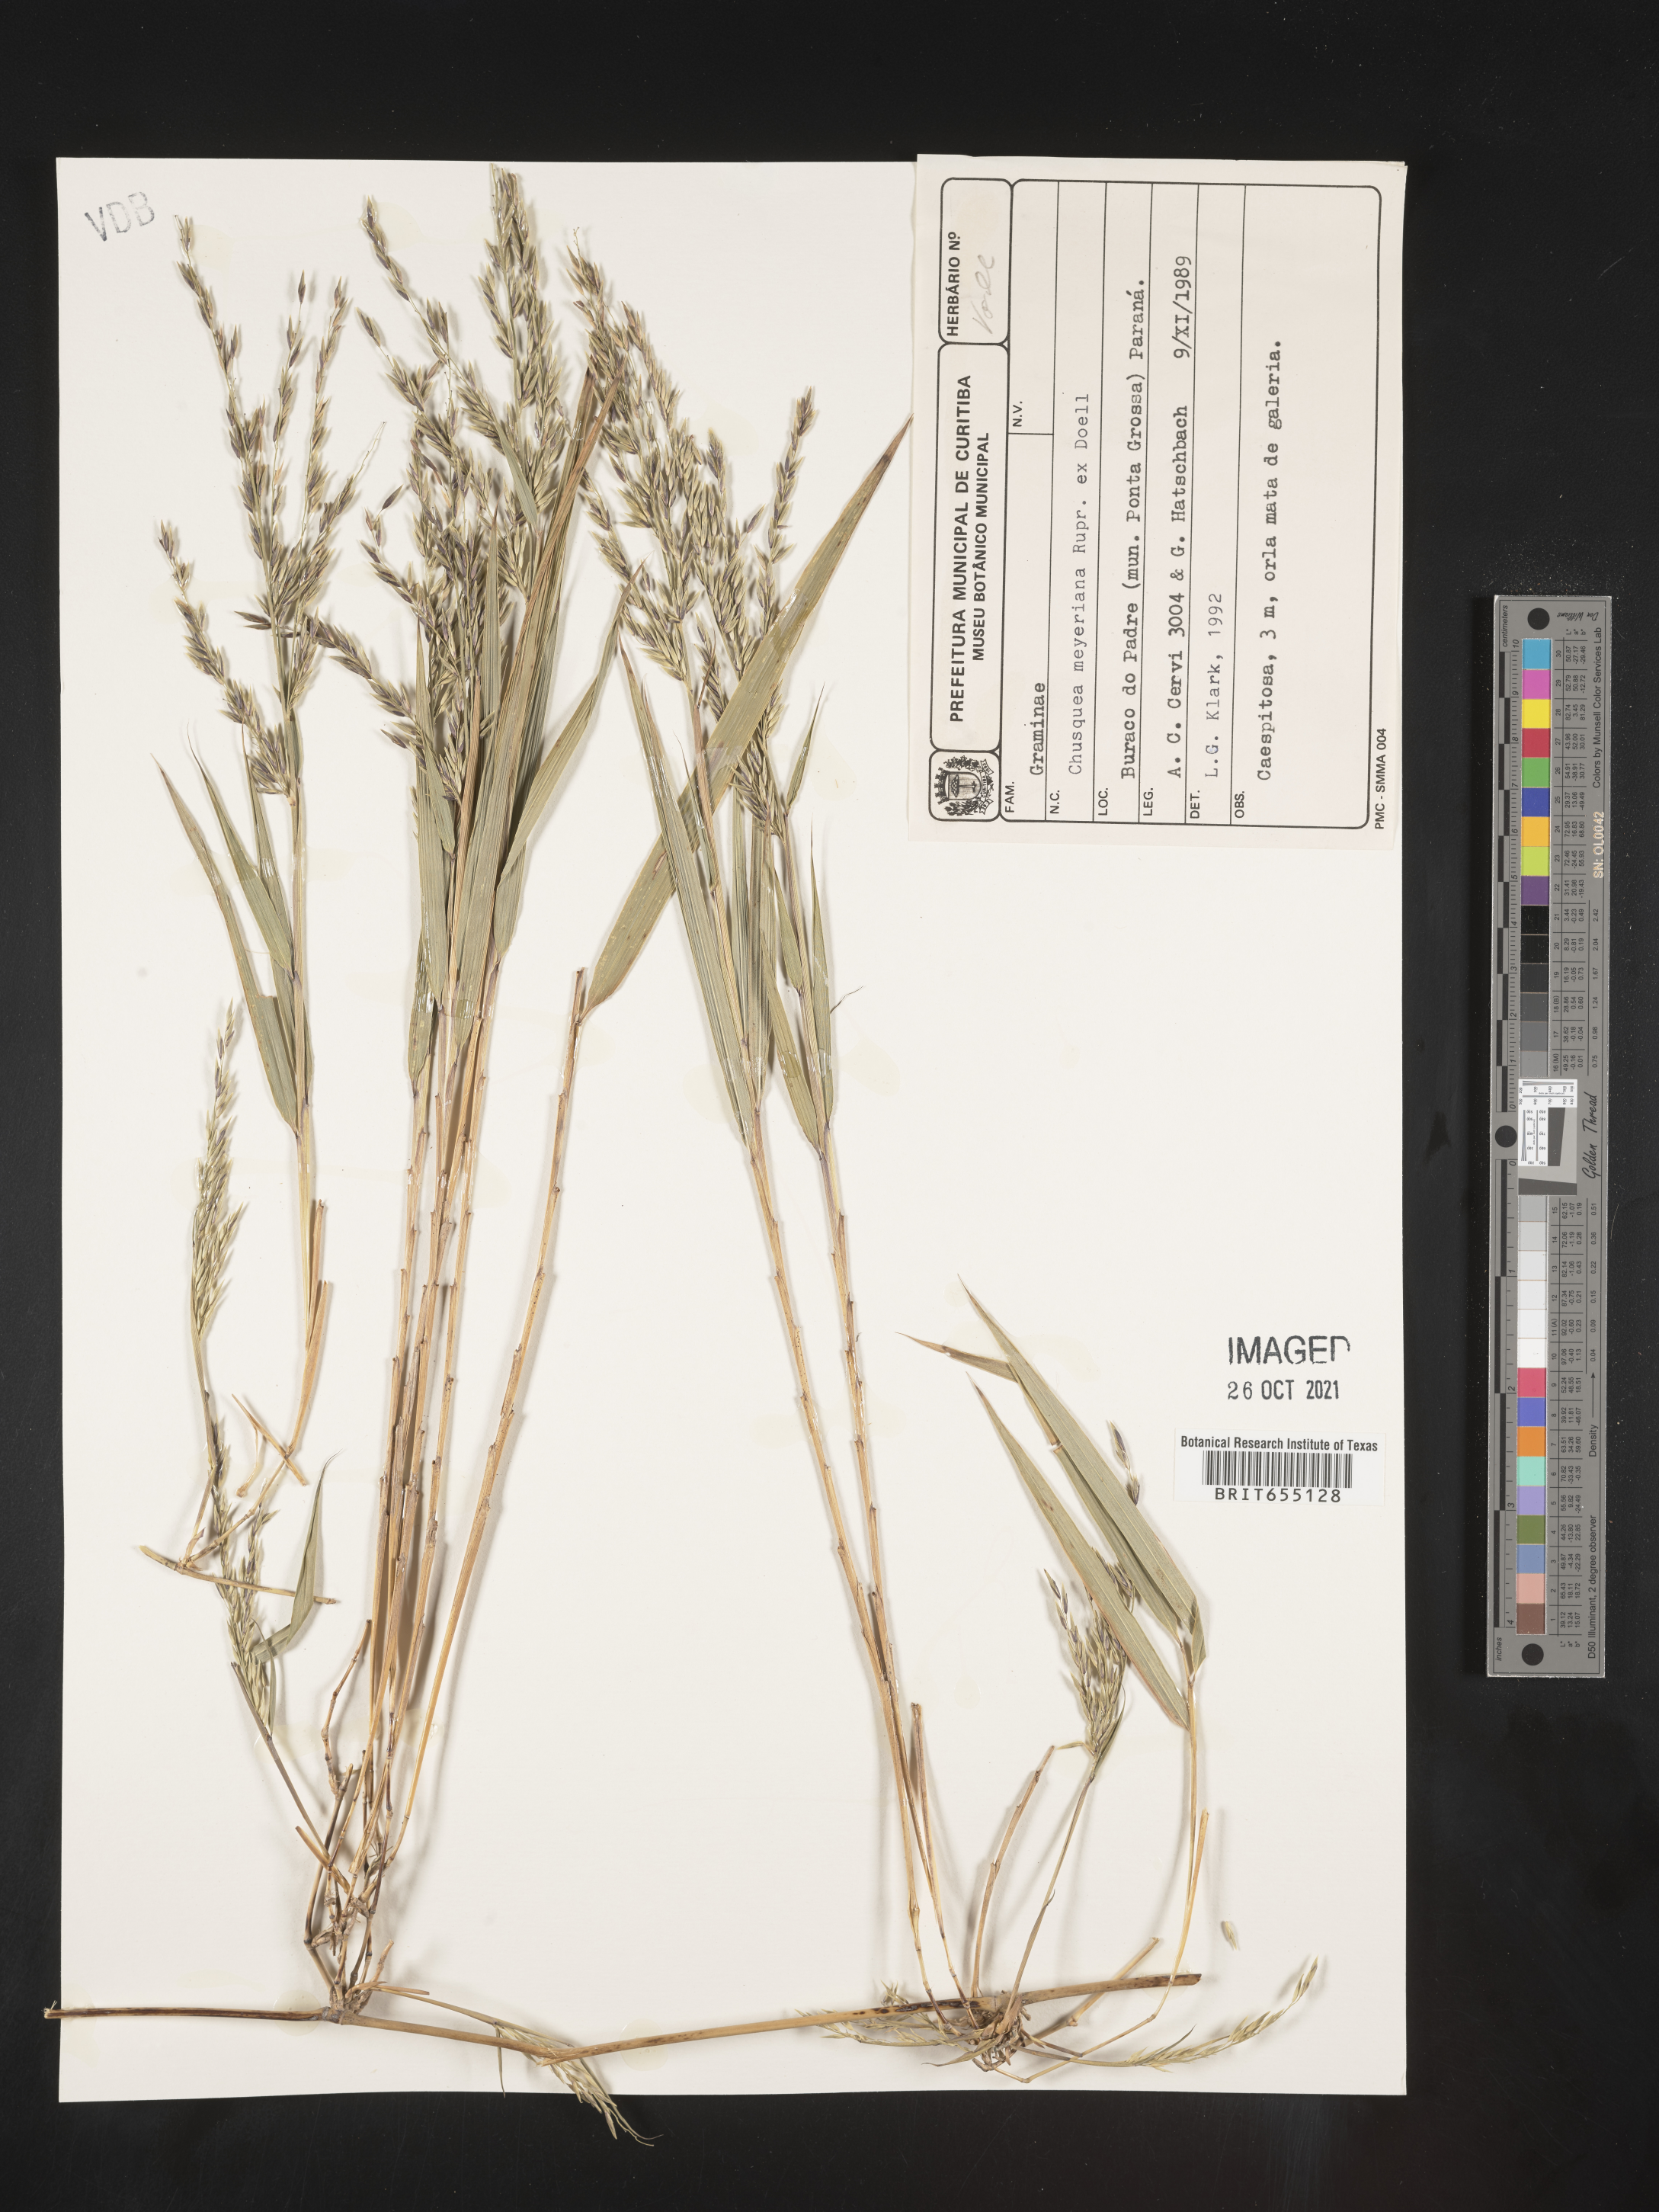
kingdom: Plantae
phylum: Tracheophyta
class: Liliopsida
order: Poales
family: Poaceae
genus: Chusquea
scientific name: Chusquea
